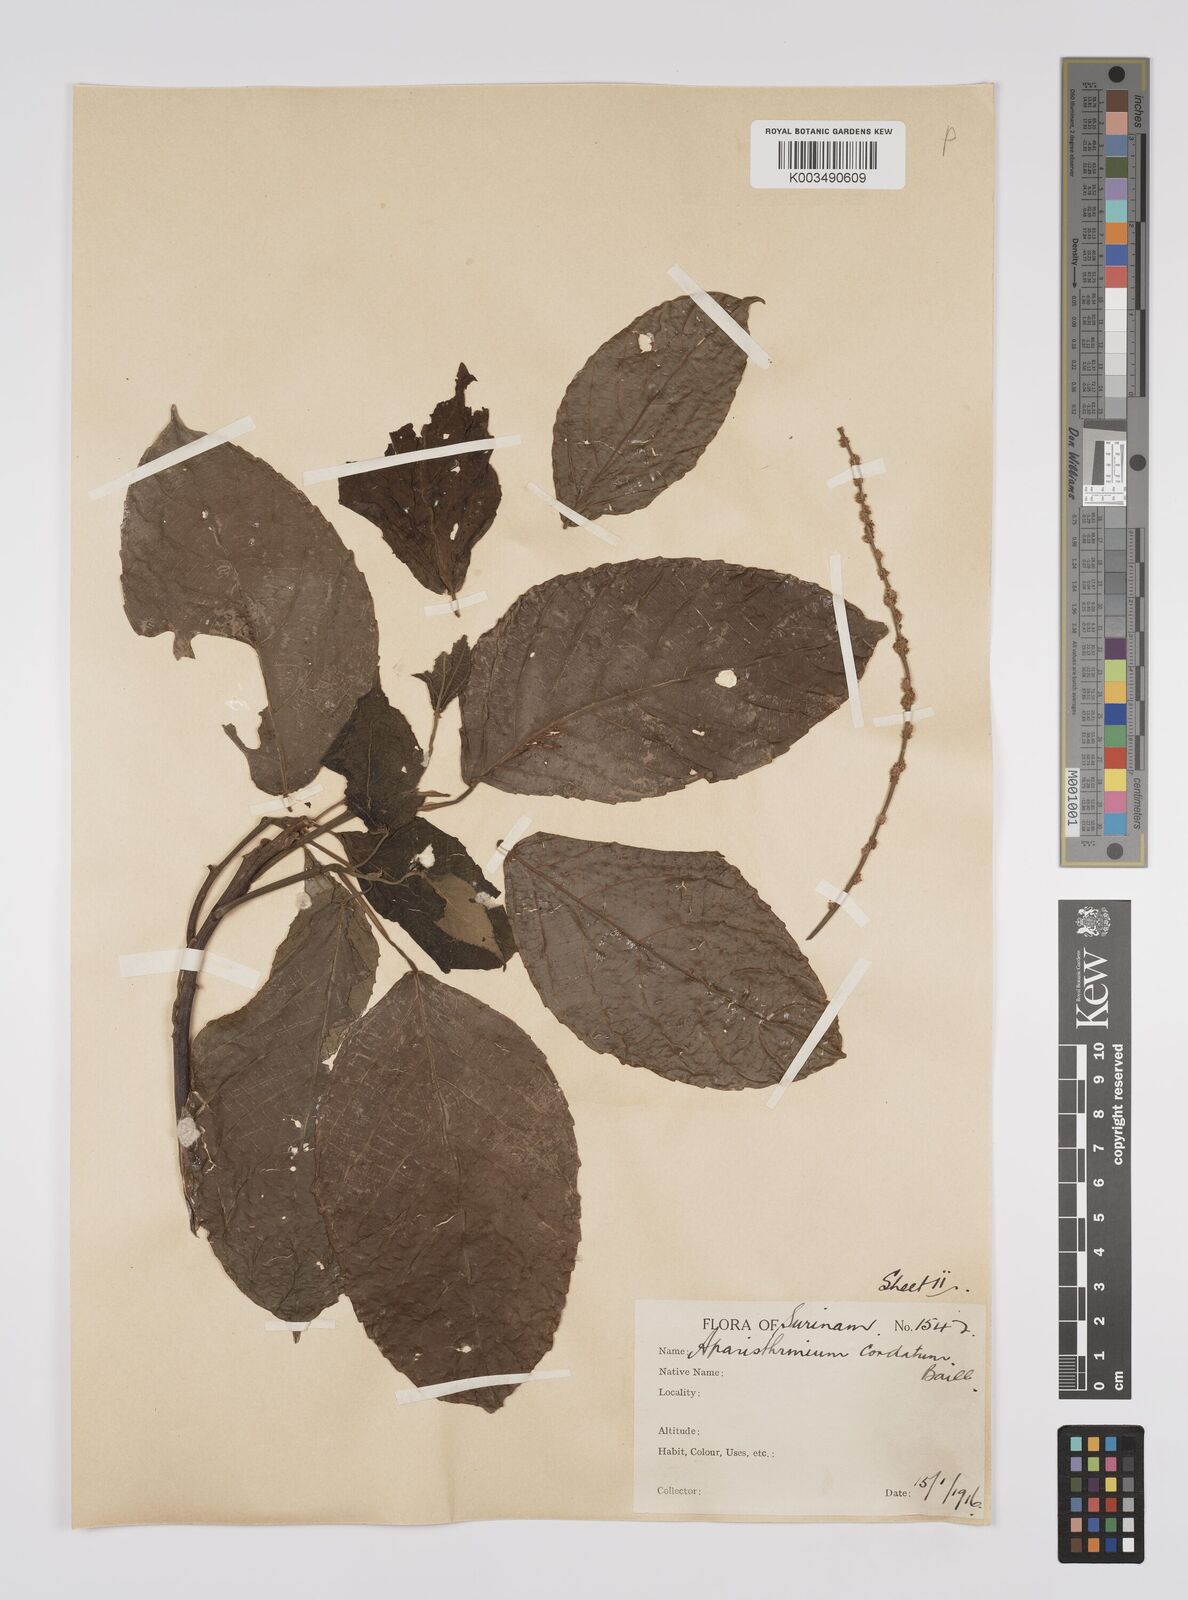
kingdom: Plantae
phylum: Tracheophyta
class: Magnoliopsida
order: Malpighiales
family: Euphorbiaceae
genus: Aparisthmium
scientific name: Aparisthmium cordatum
